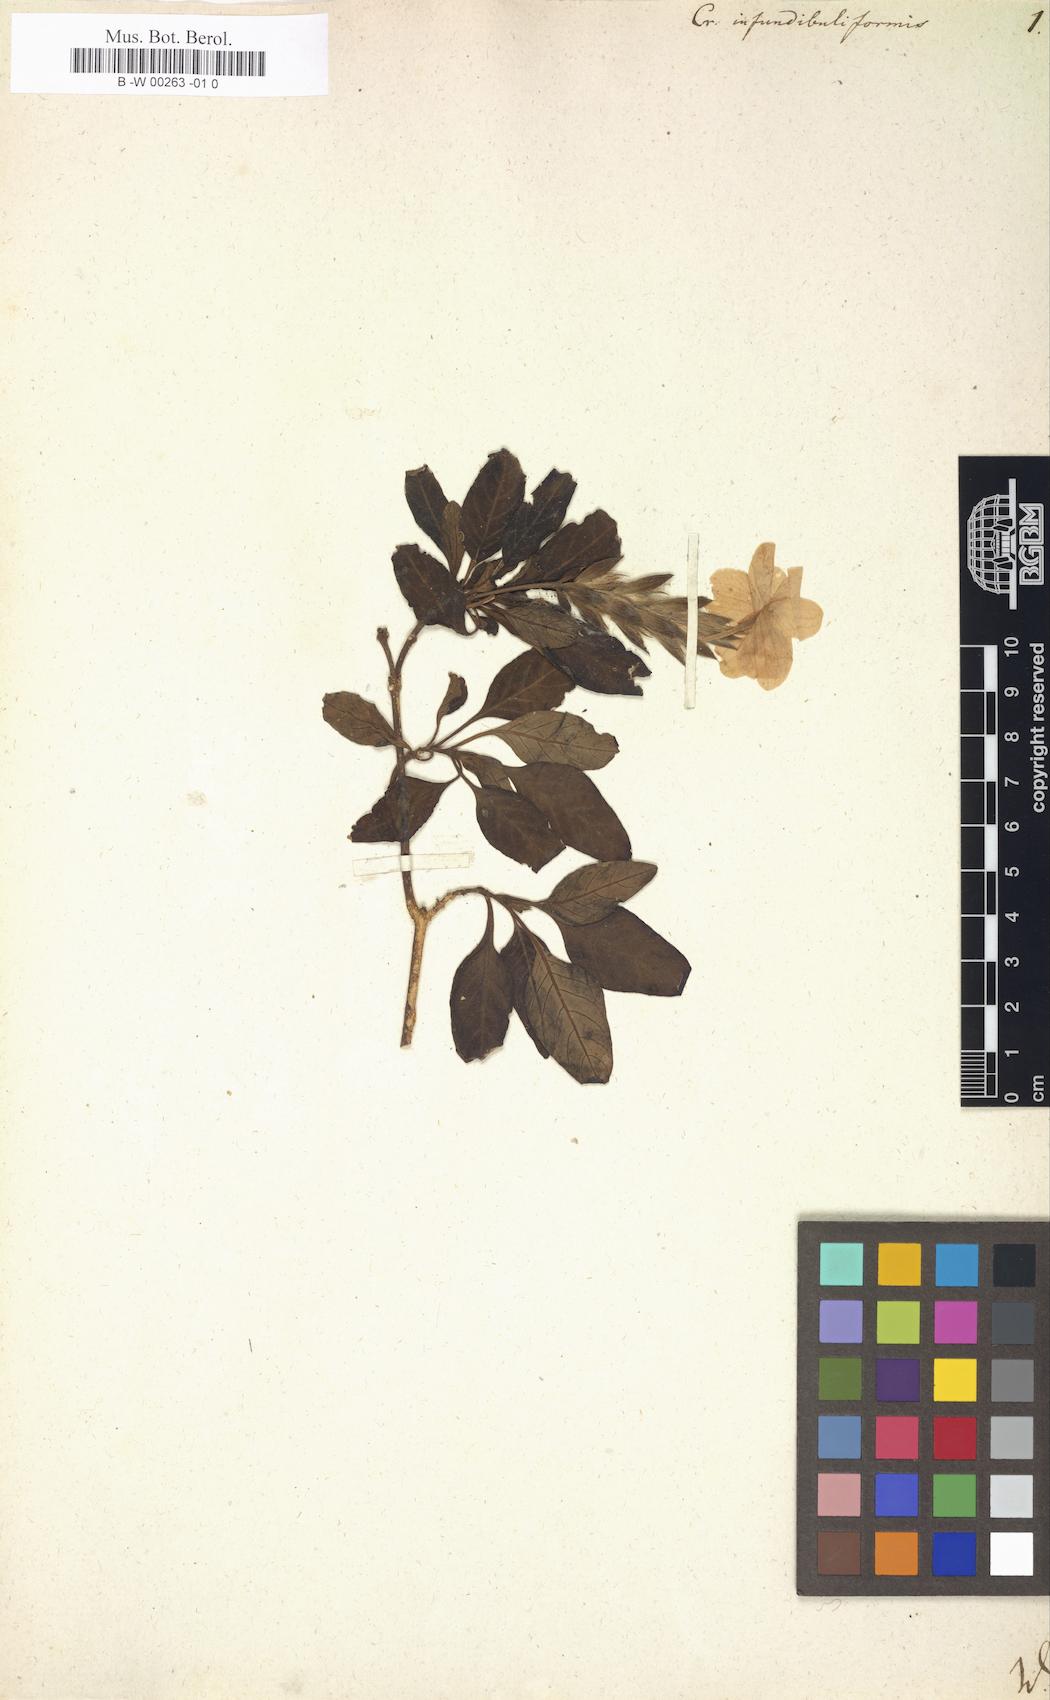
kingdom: Plantae
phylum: Tracheophyta
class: Magnoliopsida
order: Lamiales
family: Acanthaceae
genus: Crossandra
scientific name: Crossandra infundibuliformis
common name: Firecracker-flower
